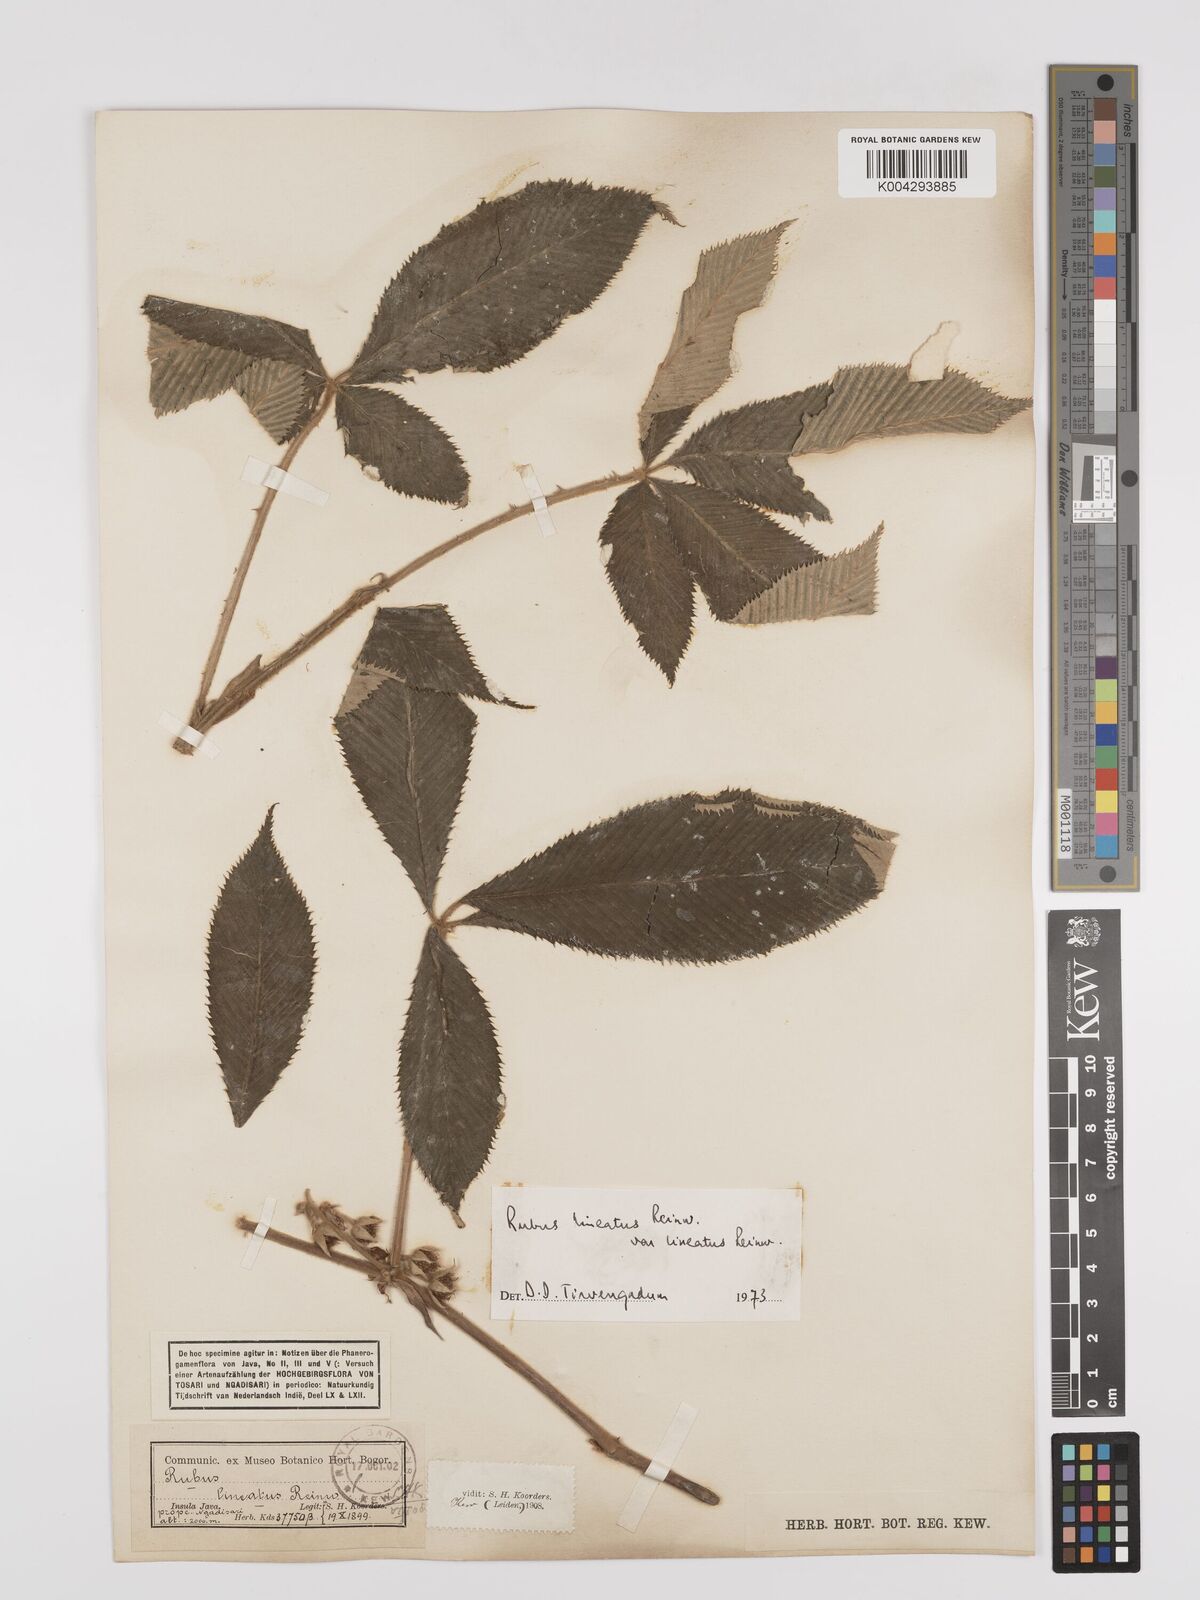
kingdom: Plantae
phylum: Tracheophyta
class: Magnoliopsida
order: Rosales
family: Rosaceae
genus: Rubus
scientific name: Rubus lineatus
